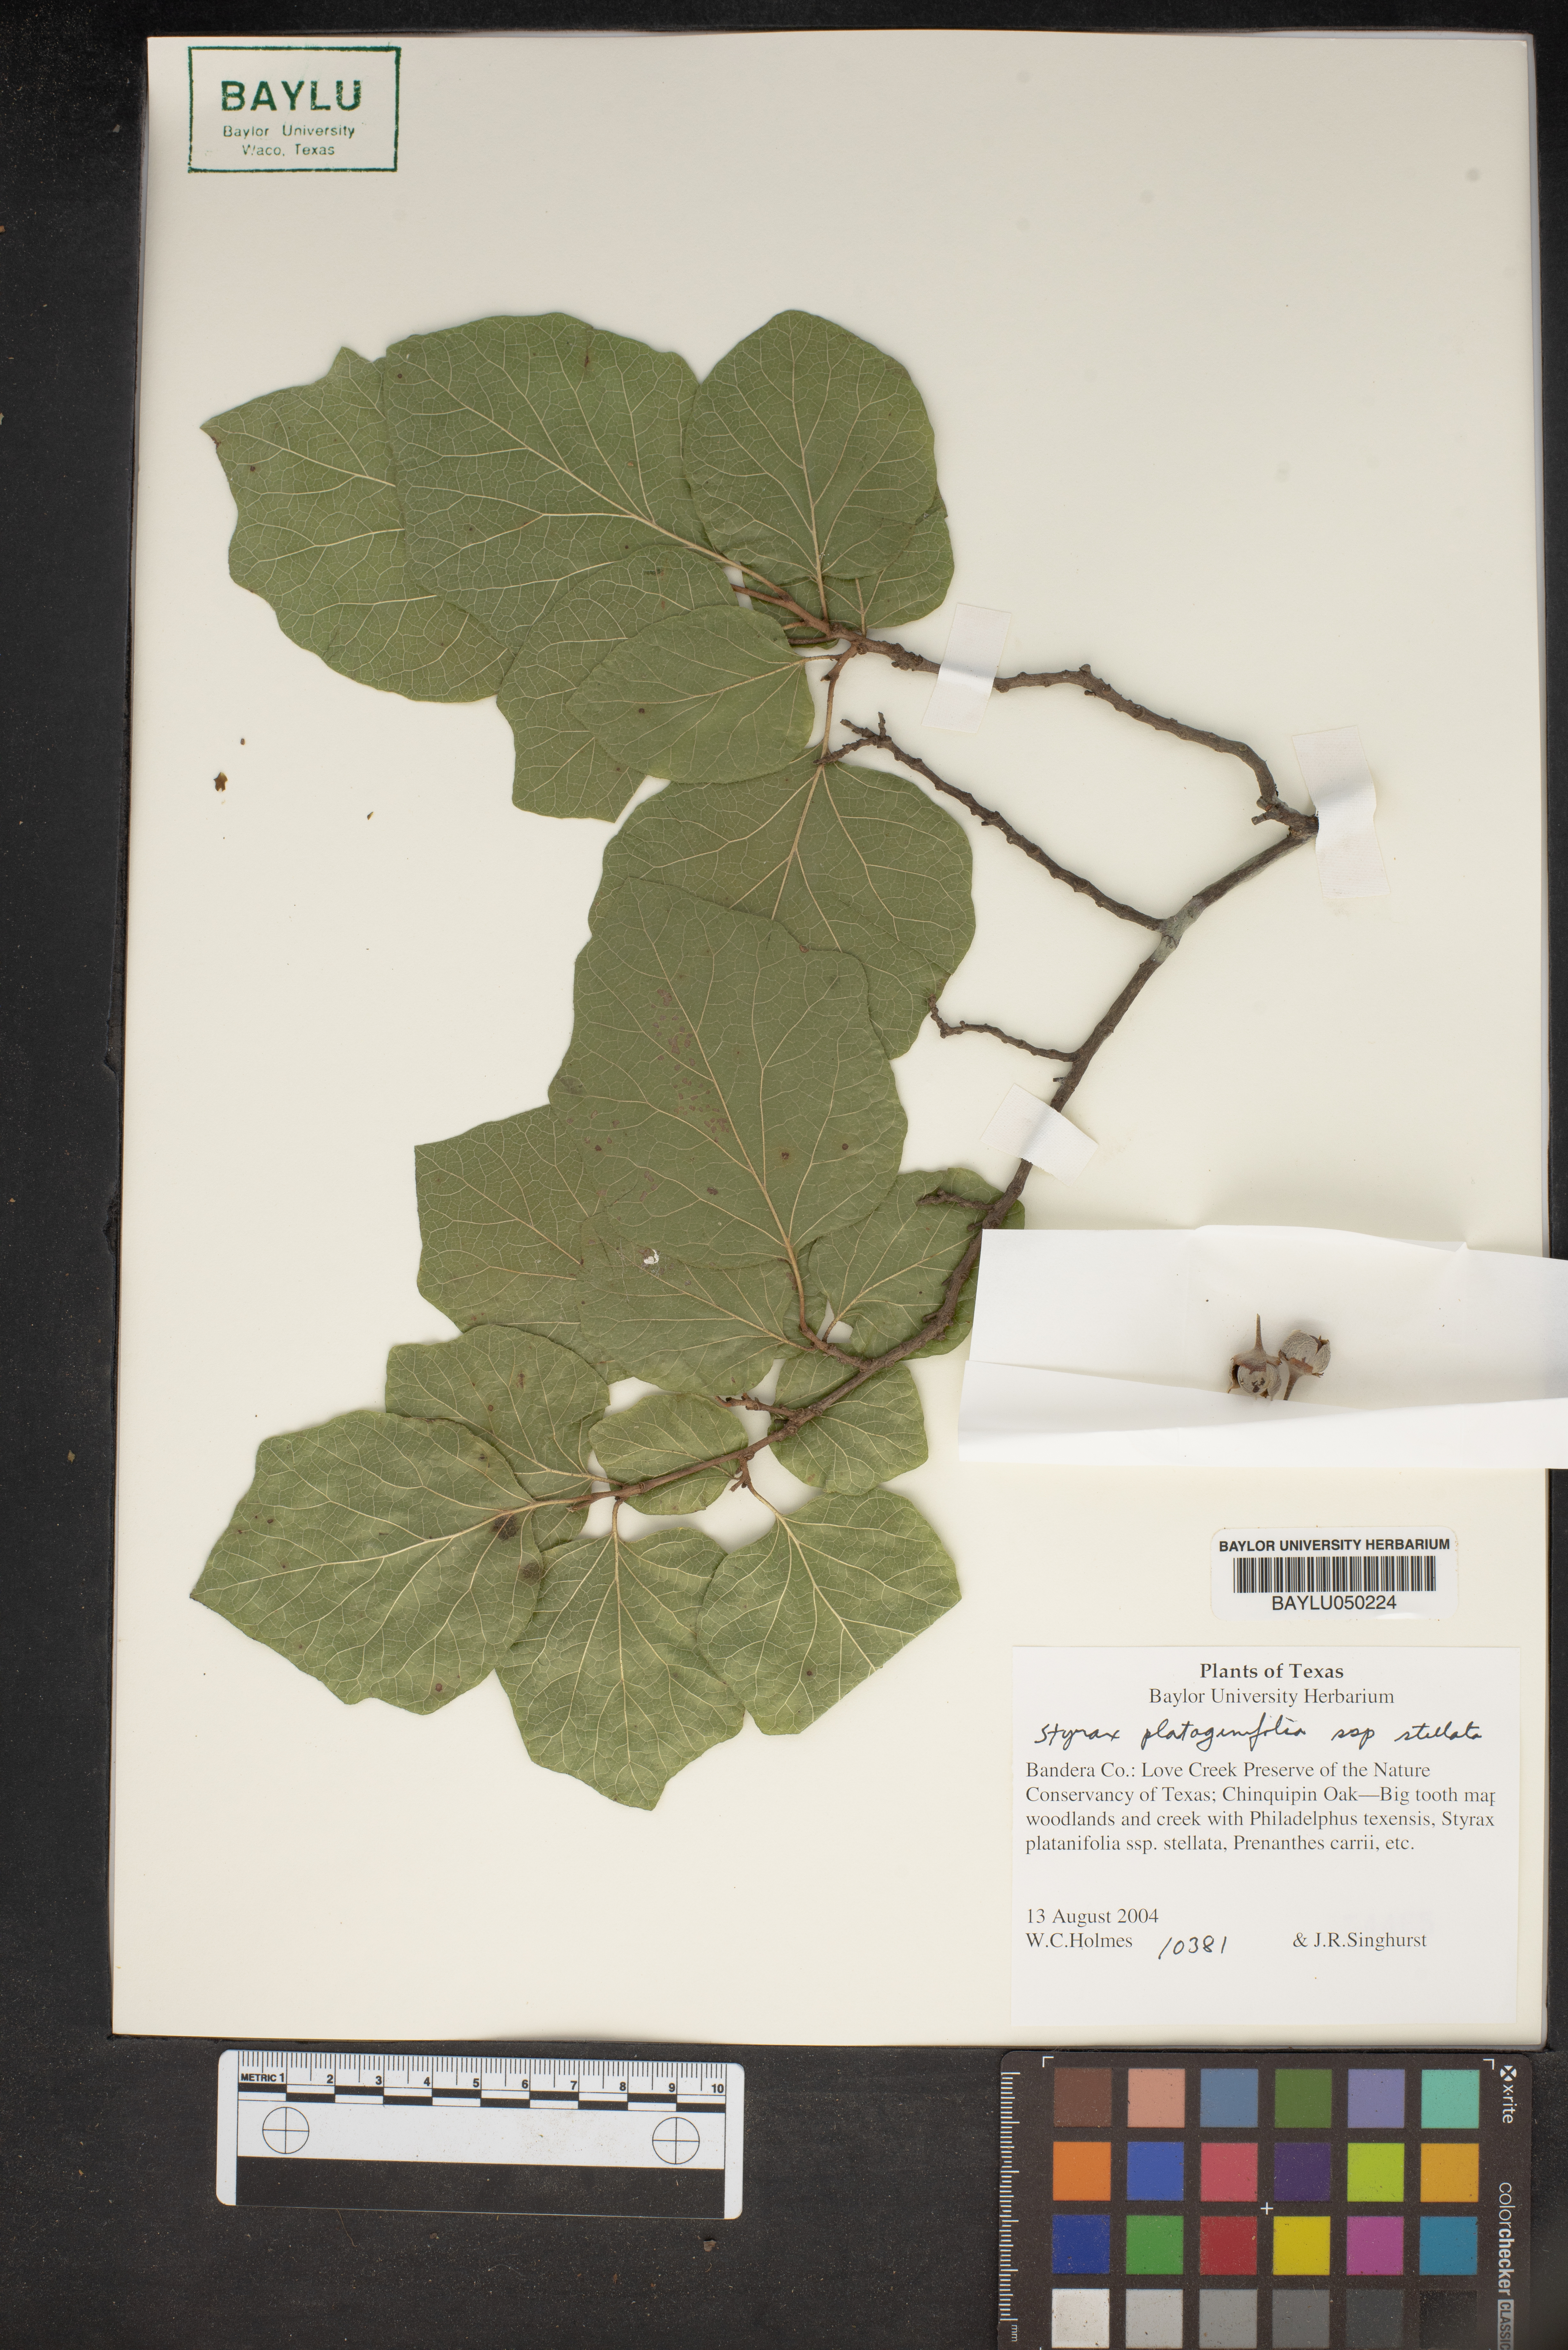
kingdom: Plantae
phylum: Tracheophyta
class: Magnoliopsida
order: Ericales
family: Styracaceae
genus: Styrax
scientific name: Styrax platanifolius
